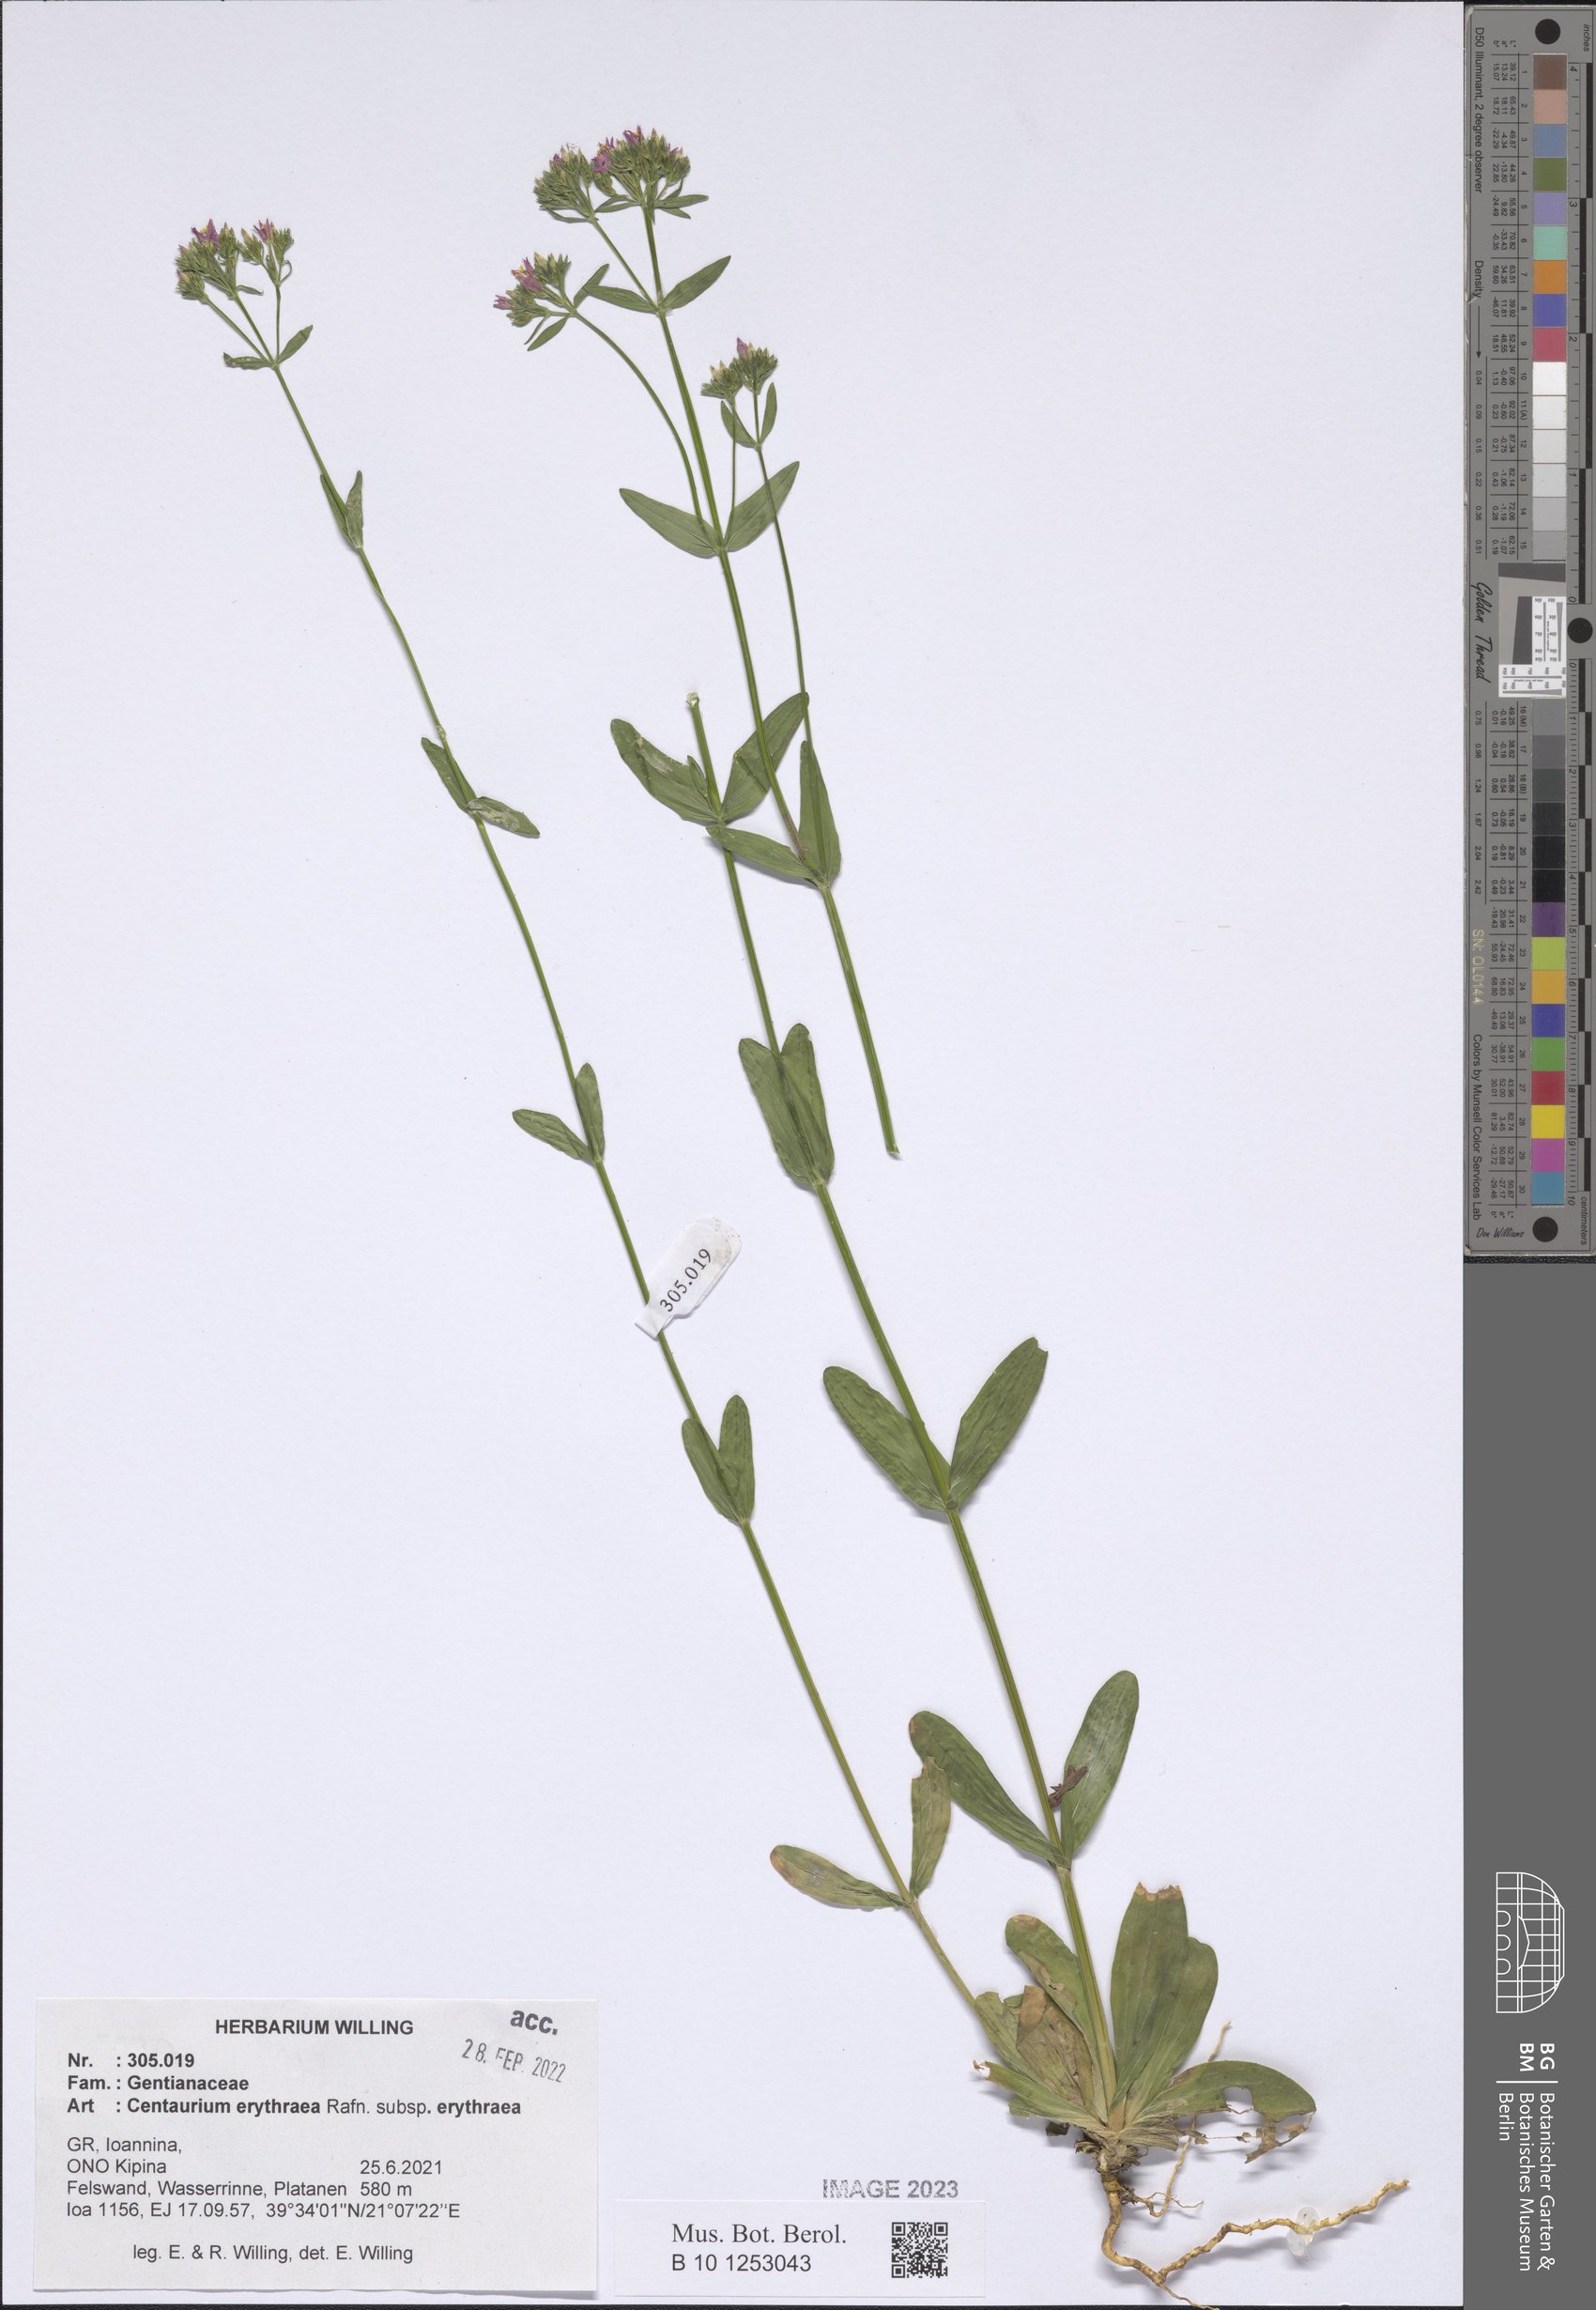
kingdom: Plantae
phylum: Tracheophyta
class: Magnoliopsida
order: Gentianales
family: Gentianaceae
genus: Centaurium
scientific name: Centaurium erythraea
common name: Common centaury
